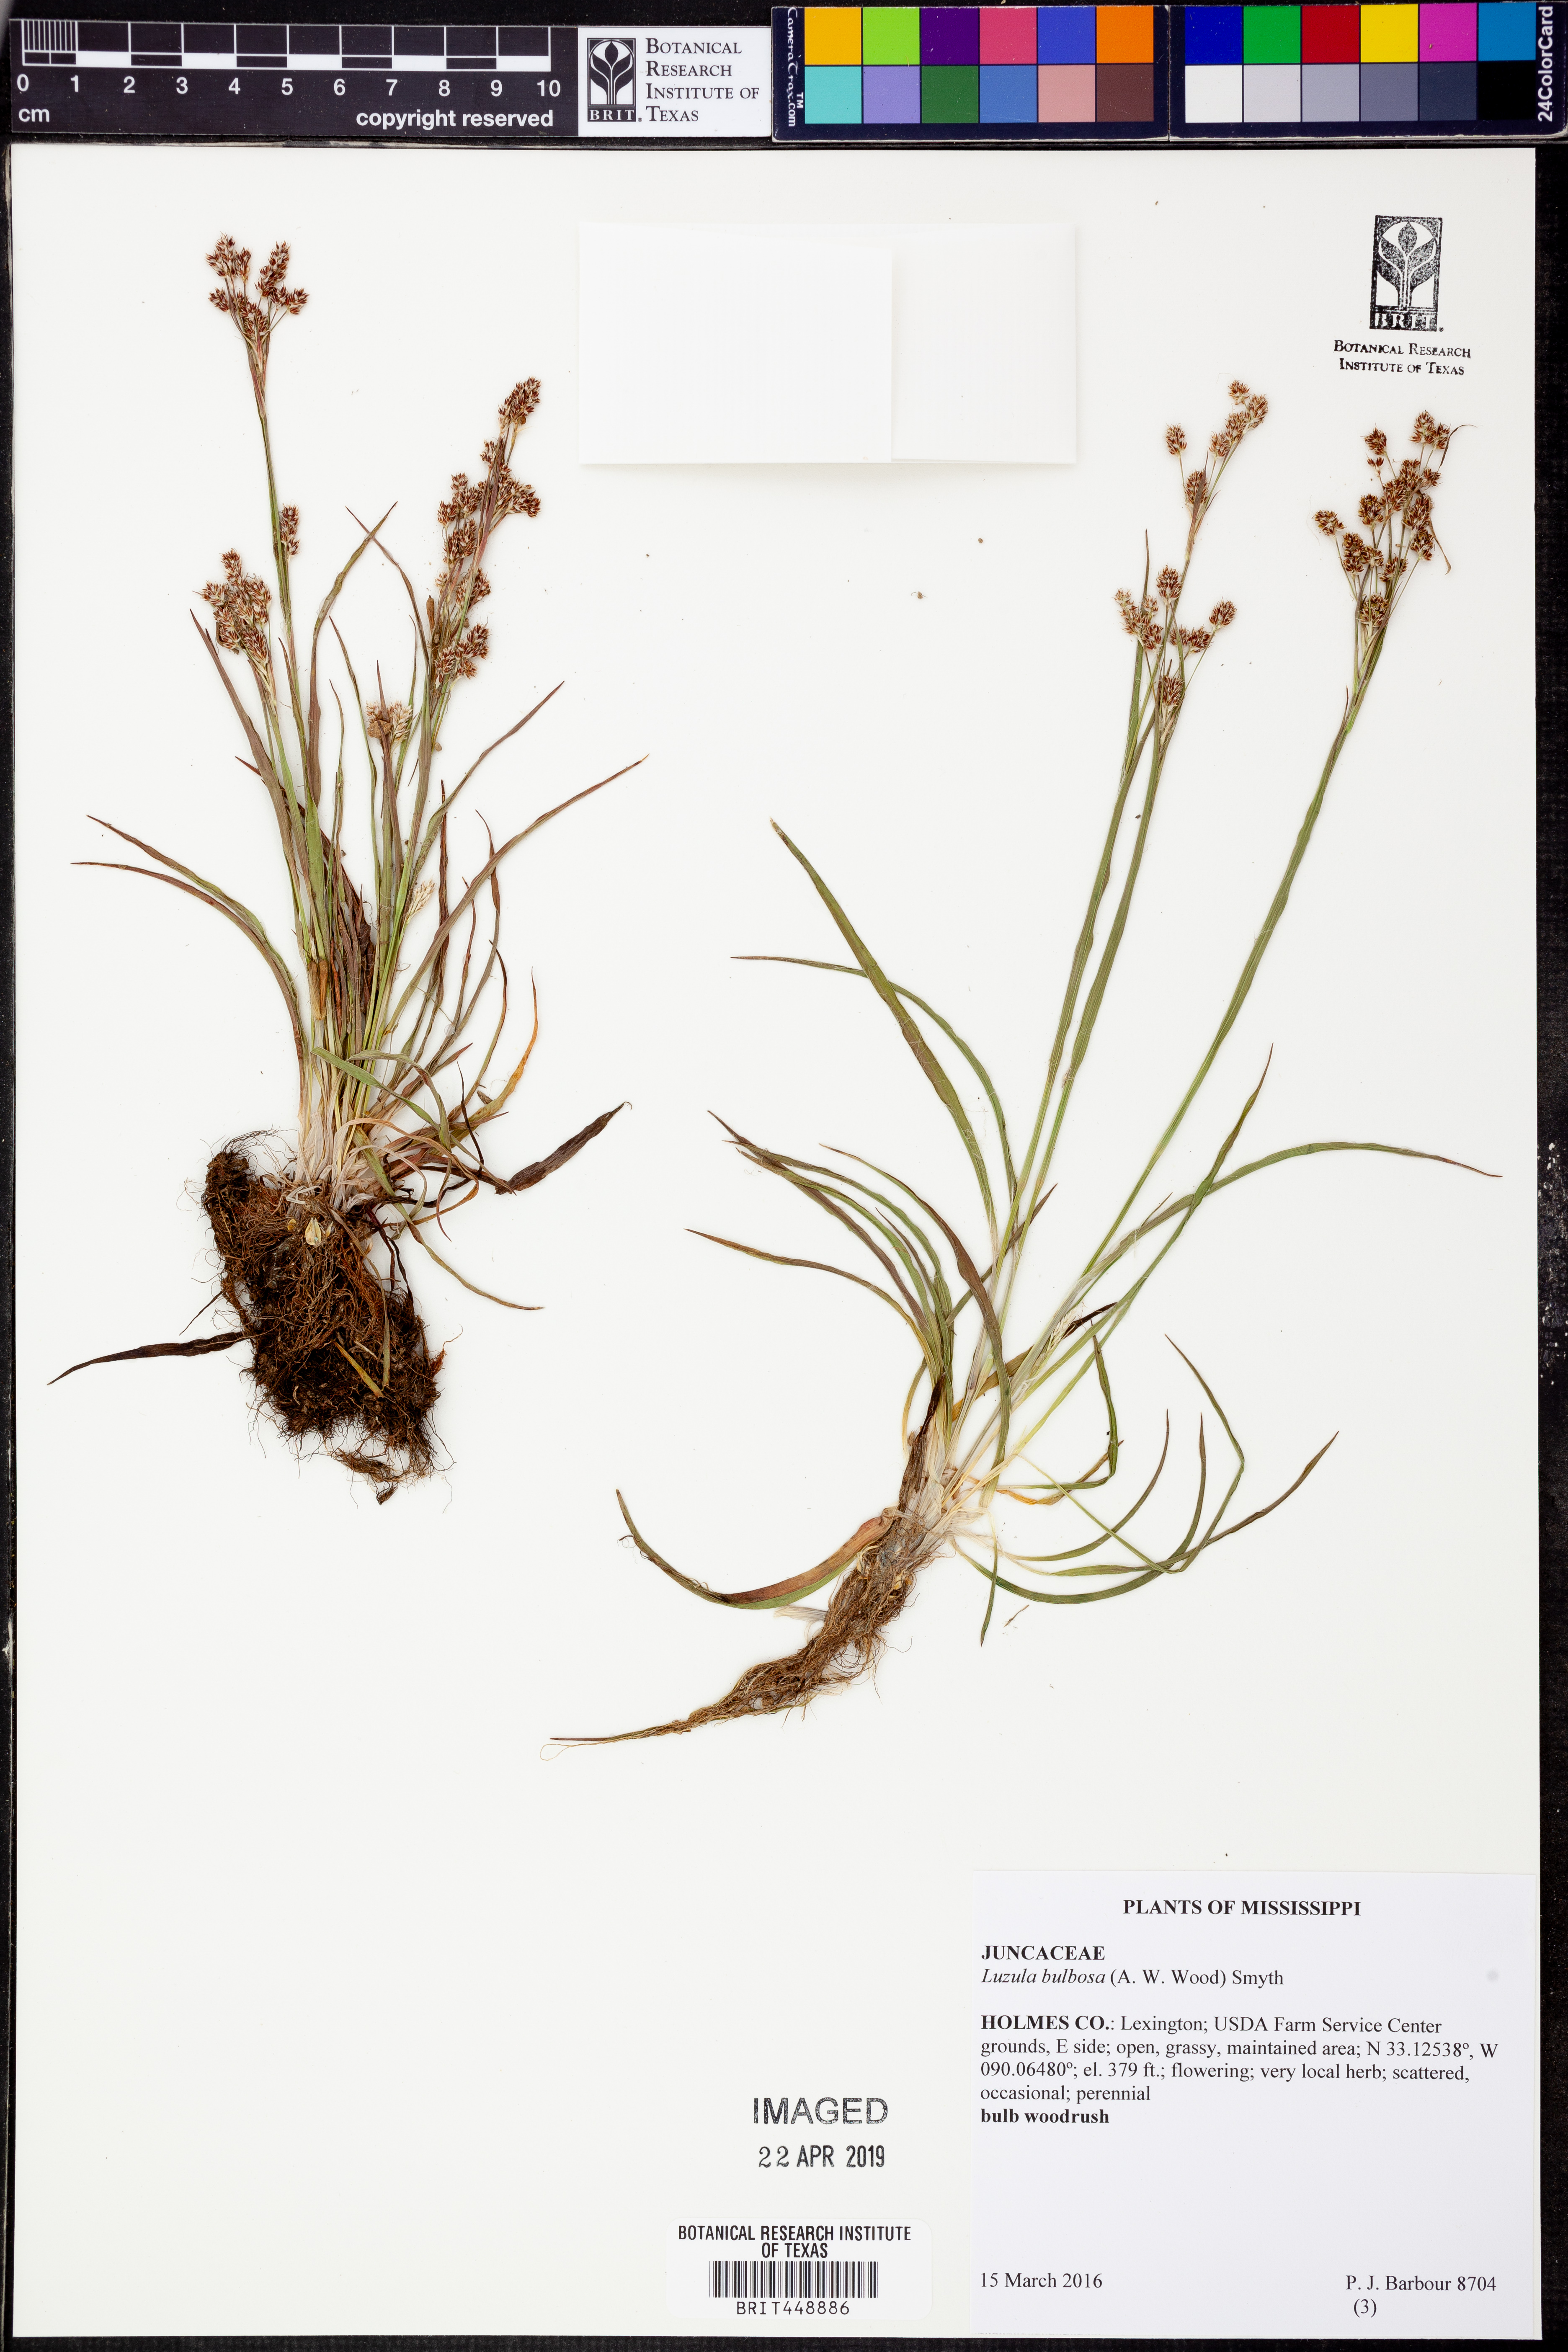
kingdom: Plantae
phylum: Tracheophyta
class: Liliopsida
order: Poales
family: Juncaceae
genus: Luzula
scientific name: Luzula bulbosa
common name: Bulbous woodrush
